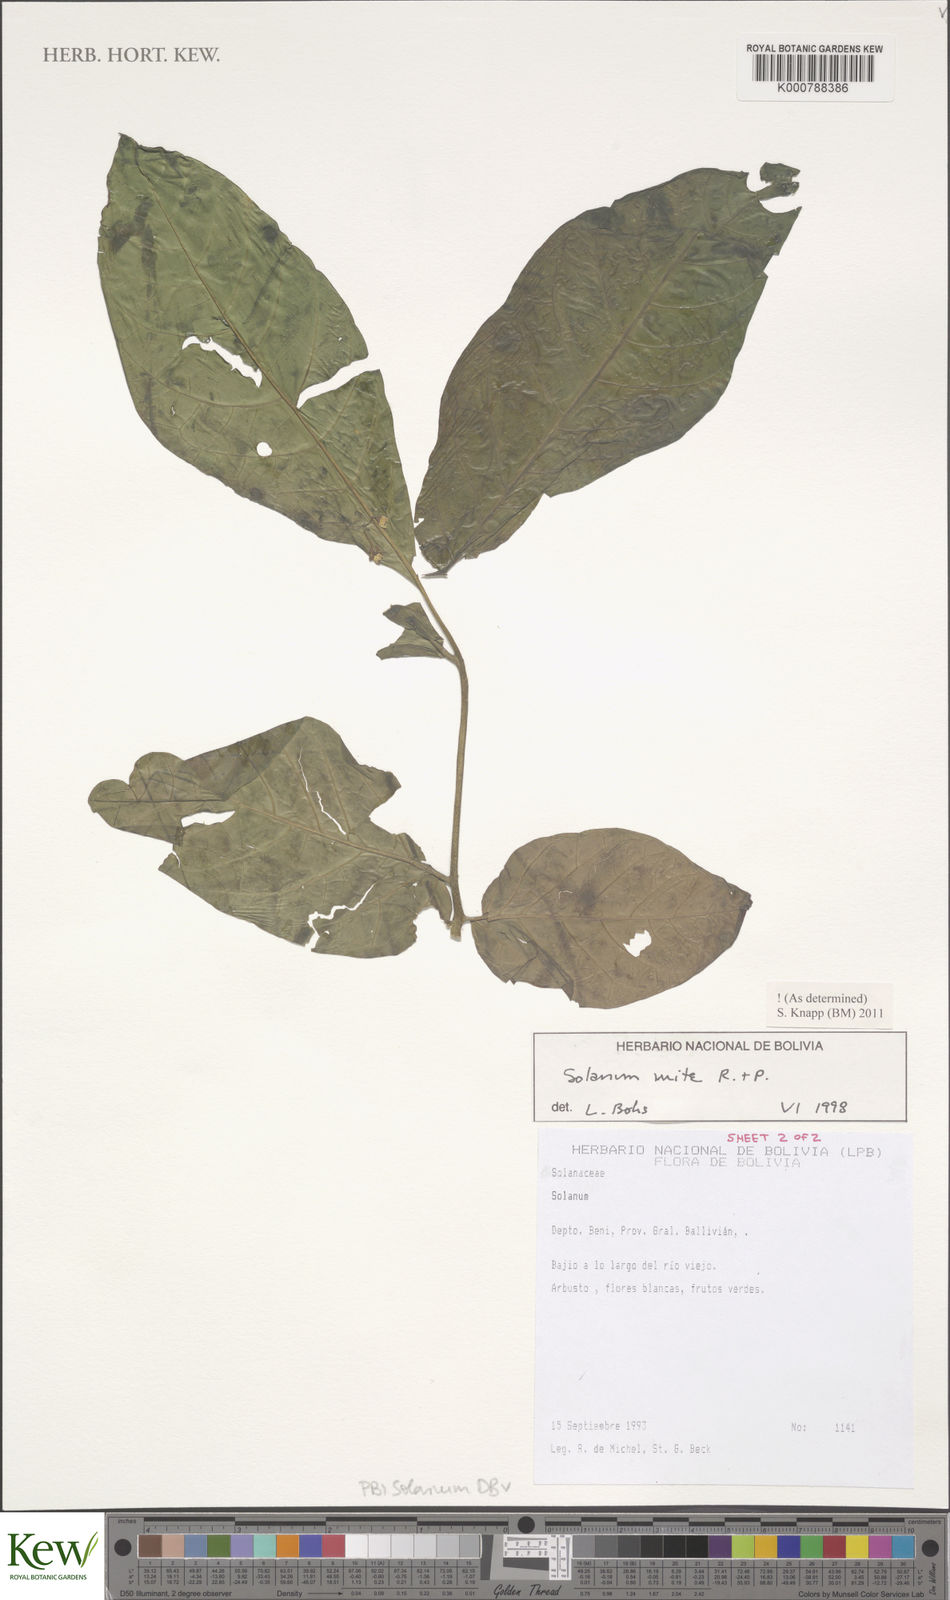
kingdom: Plantae
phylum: Tracheophyta
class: Magnoliopsida
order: Solanales
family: Solanaceae
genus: Solanum
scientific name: Solanum mite
